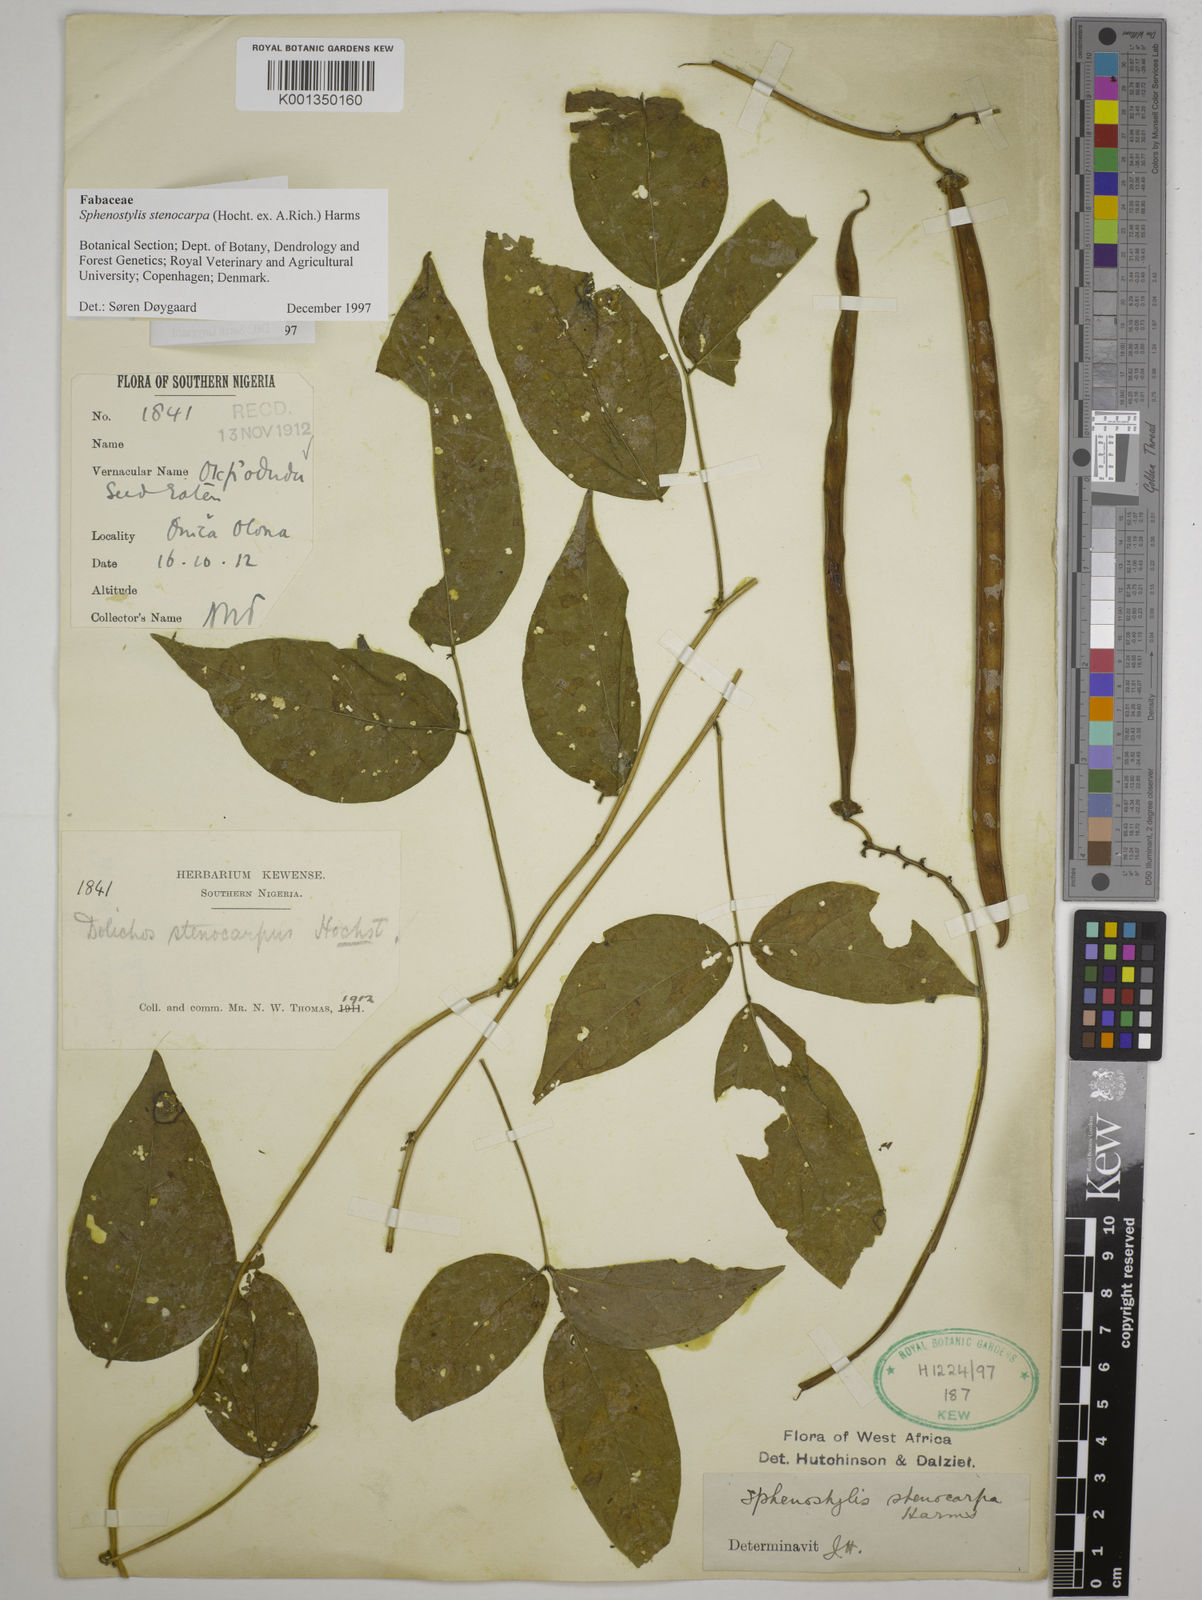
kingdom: Plantae
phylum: Tracheophyta
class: Magnoliopsida
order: Fabales
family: Fabaceae
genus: Sphenostylis
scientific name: Sphenostylis stenocarpa
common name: Yam-pea
